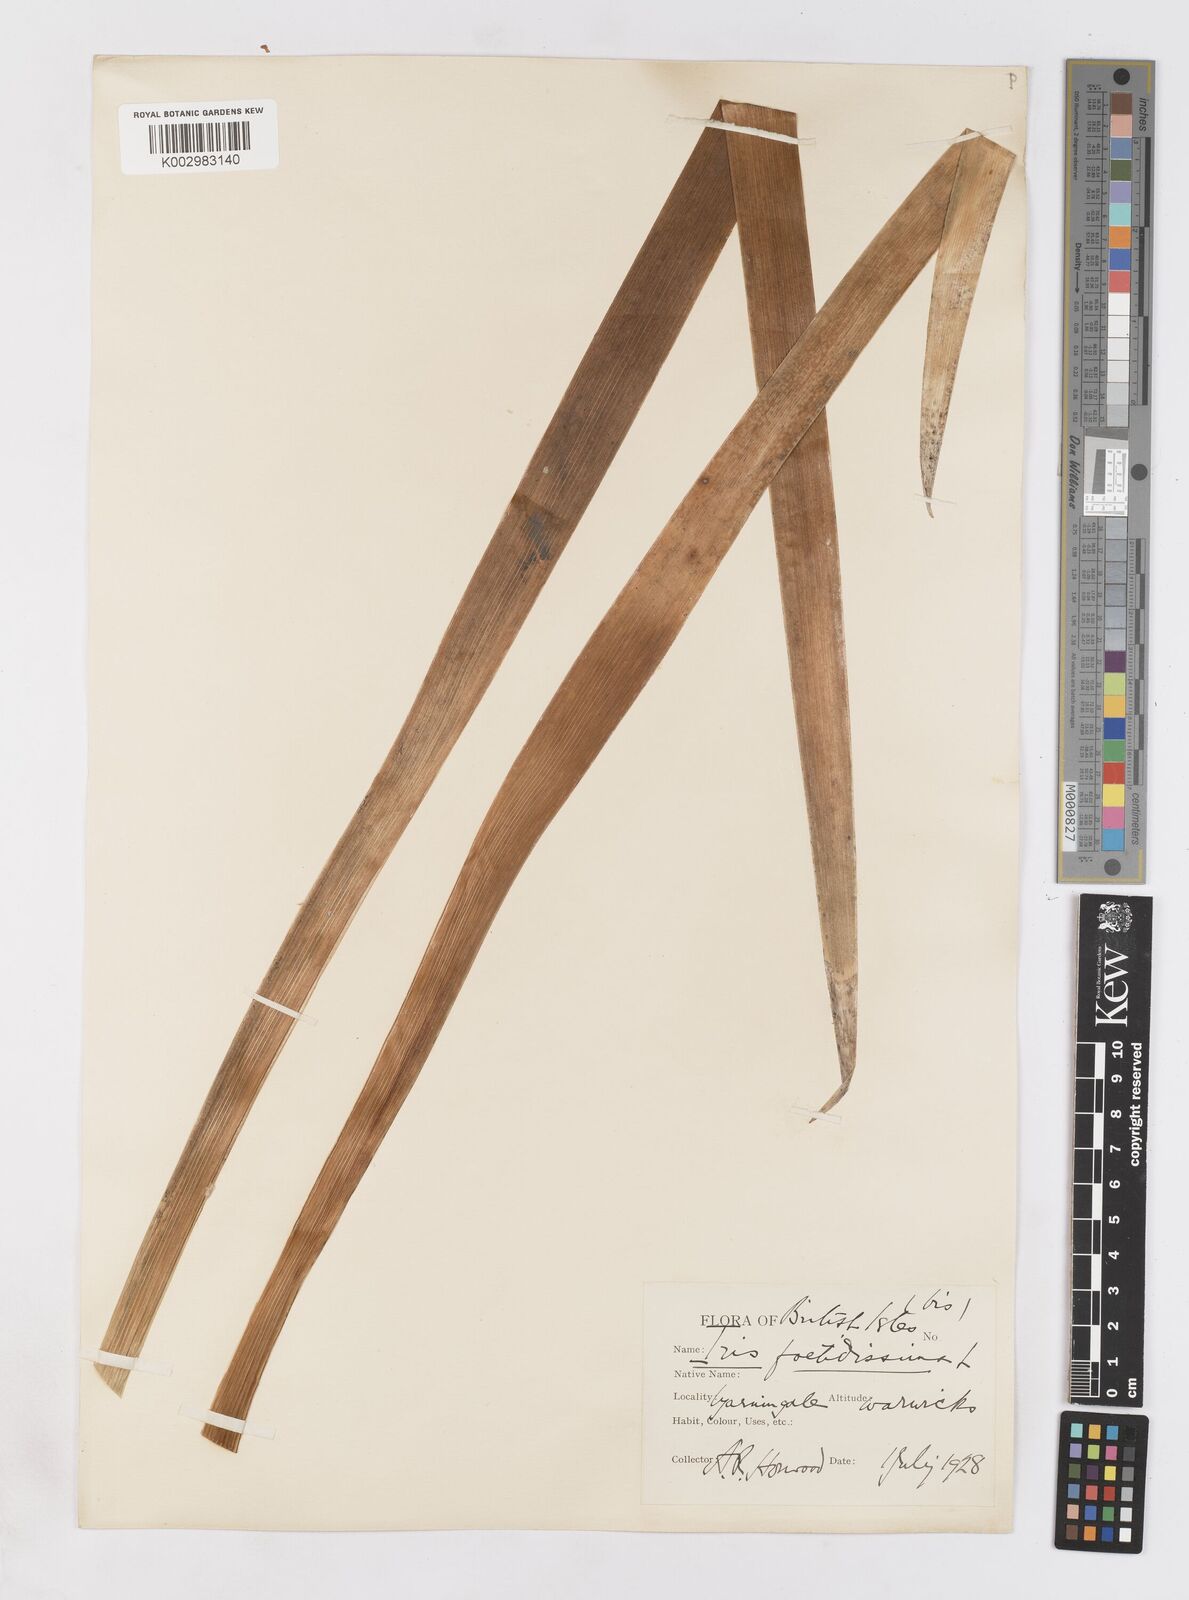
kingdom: Plantae
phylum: Tracheophyta
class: Liliopsida
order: Asparagales
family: Iridaceae
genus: Iris
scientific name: Iris foetidissima
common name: Stinking iris
